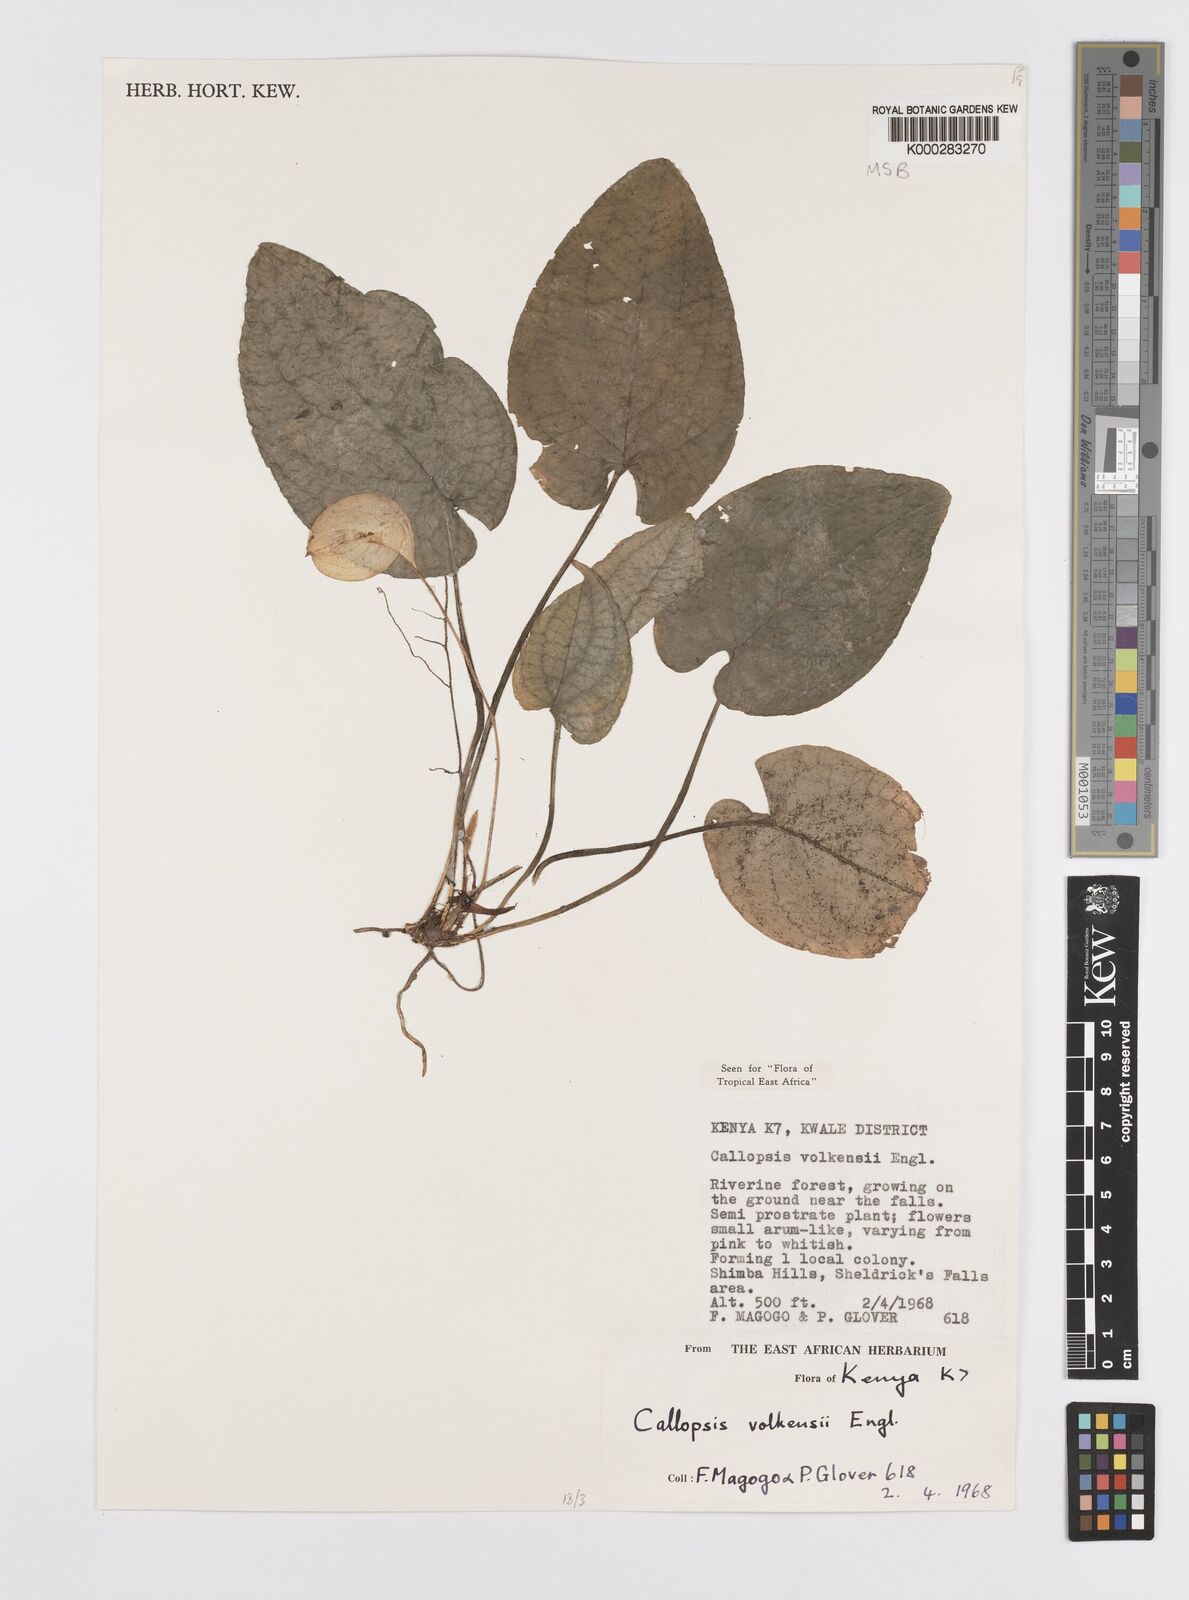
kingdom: Plantae
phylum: Tracheophyta
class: Liliopsida
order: Alismatales
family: Araceae
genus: Callopsis
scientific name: Callopsis volkensii
